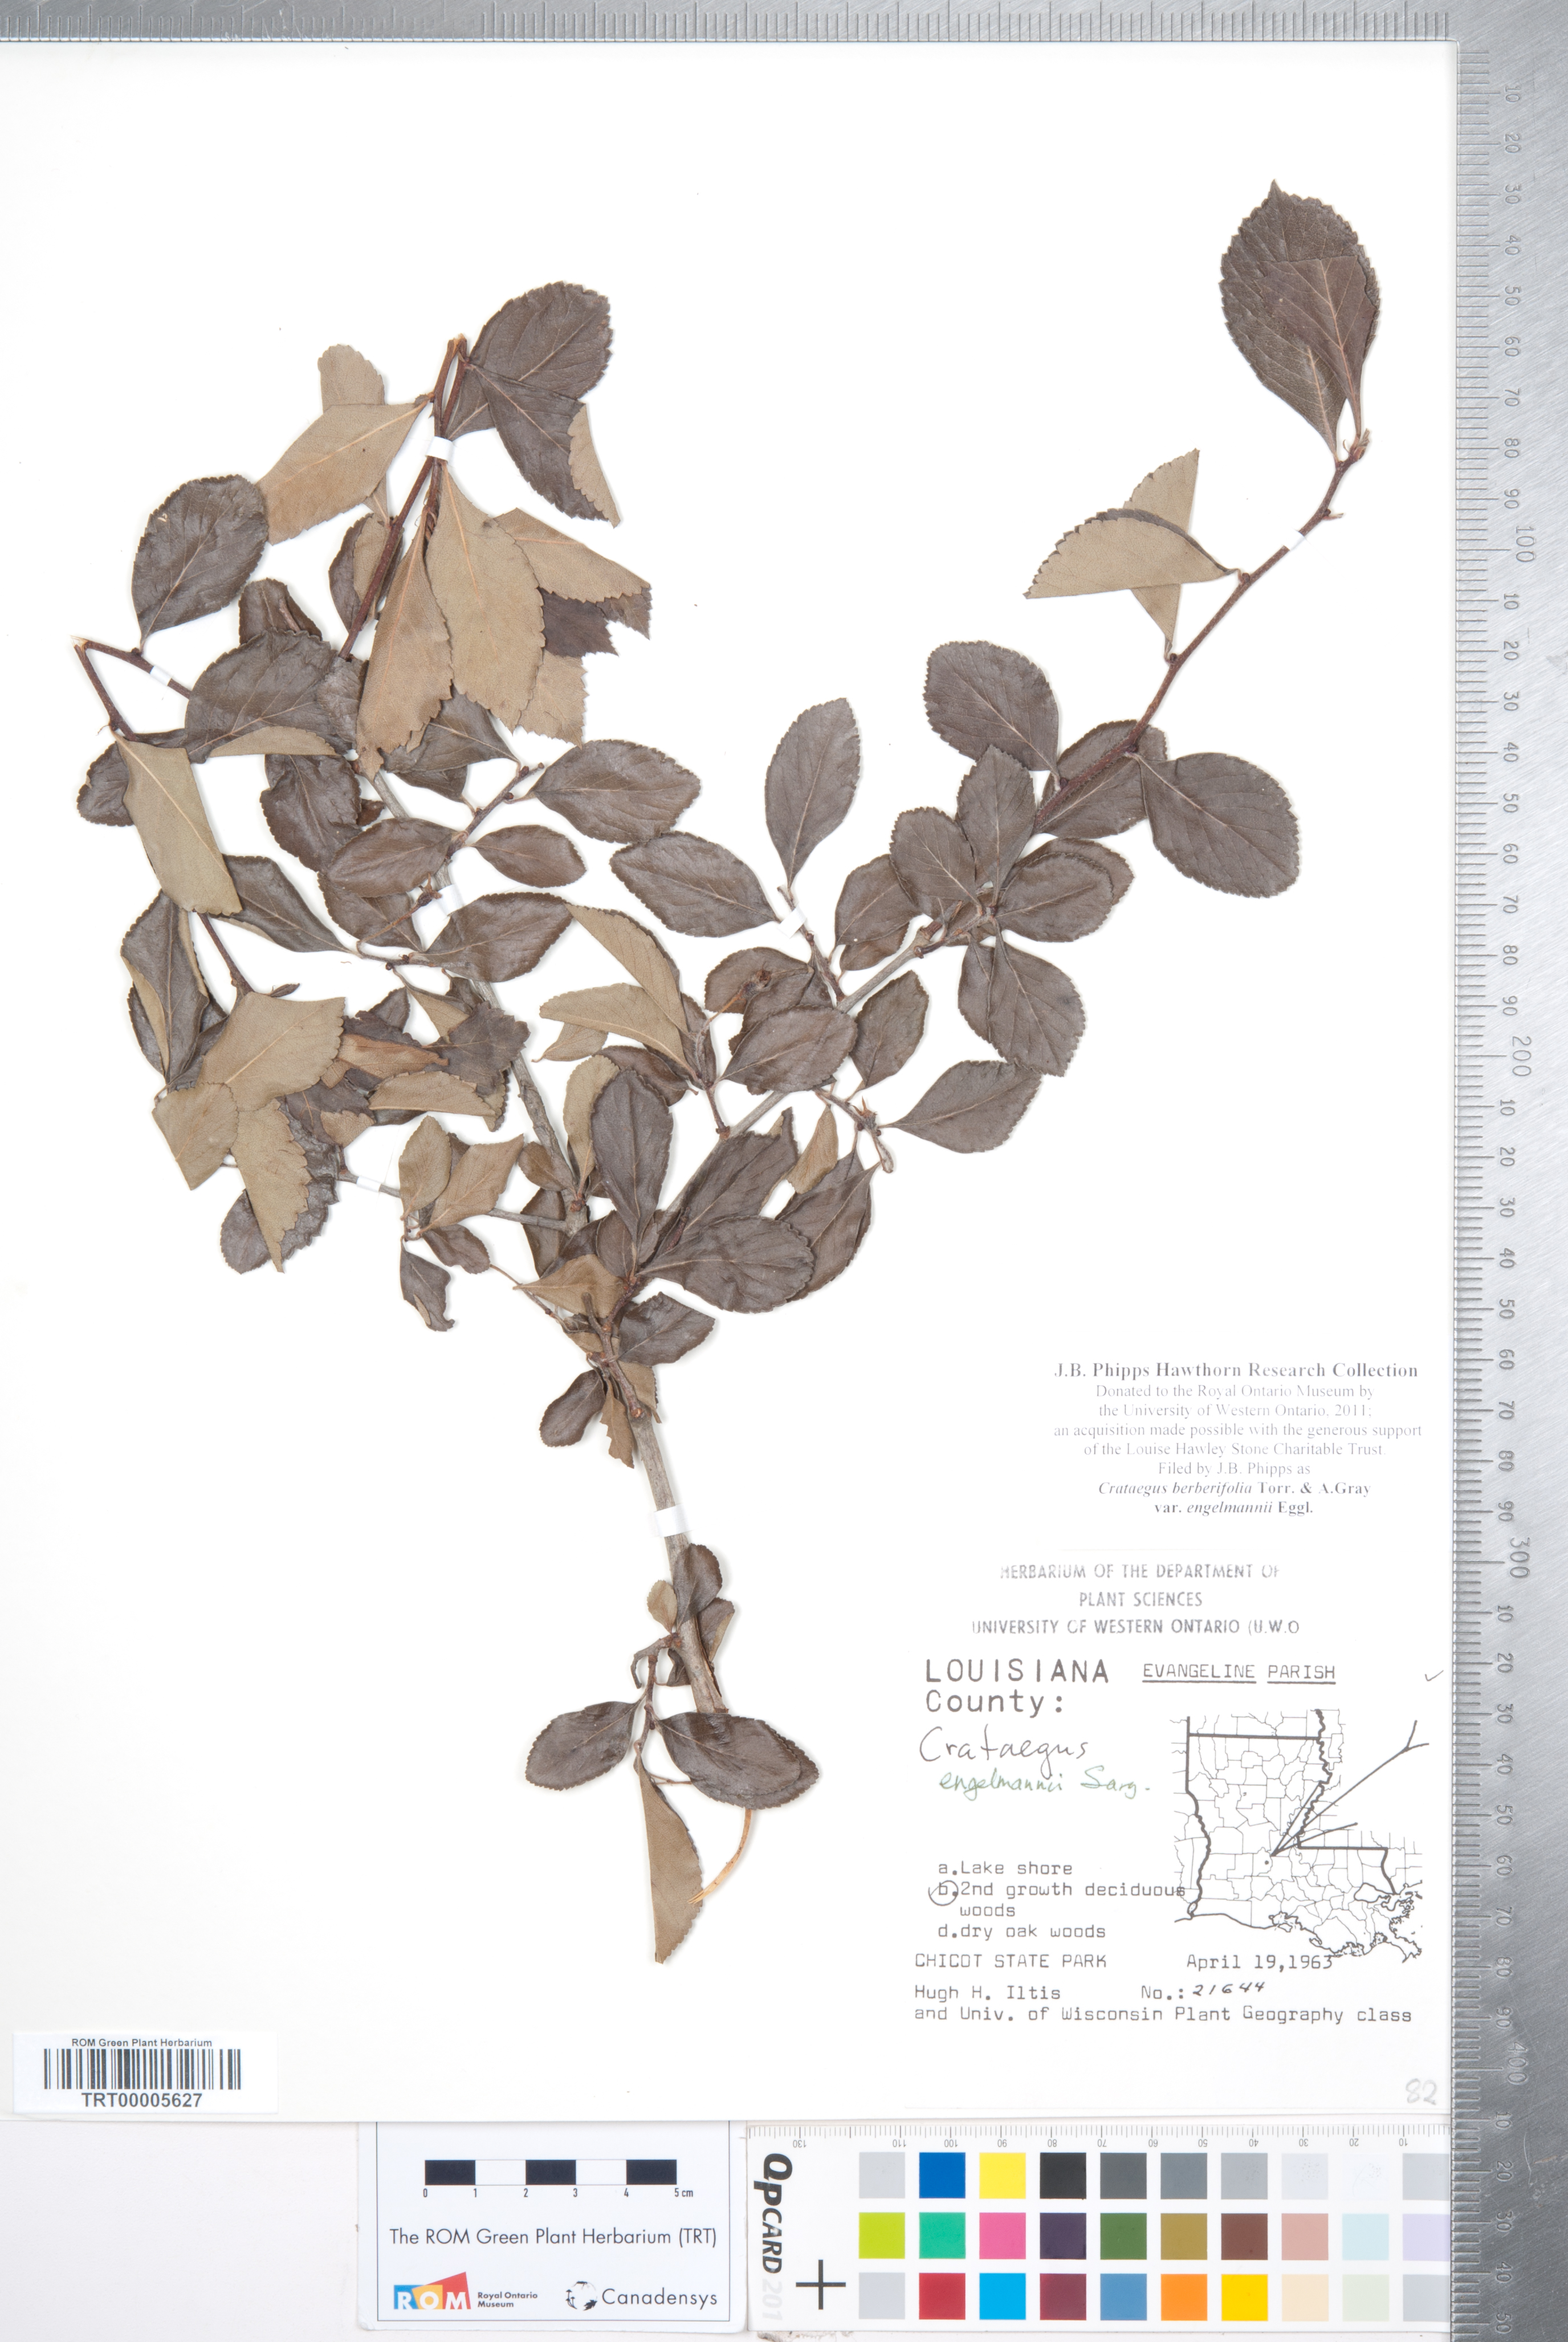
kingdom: Plantae
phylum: Tracheophyta
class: Magnoliopsida
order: Rosales
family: Rosaceae
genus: Crataegus
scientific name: Crataegus berberifolia
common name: Barberry hawthorn
